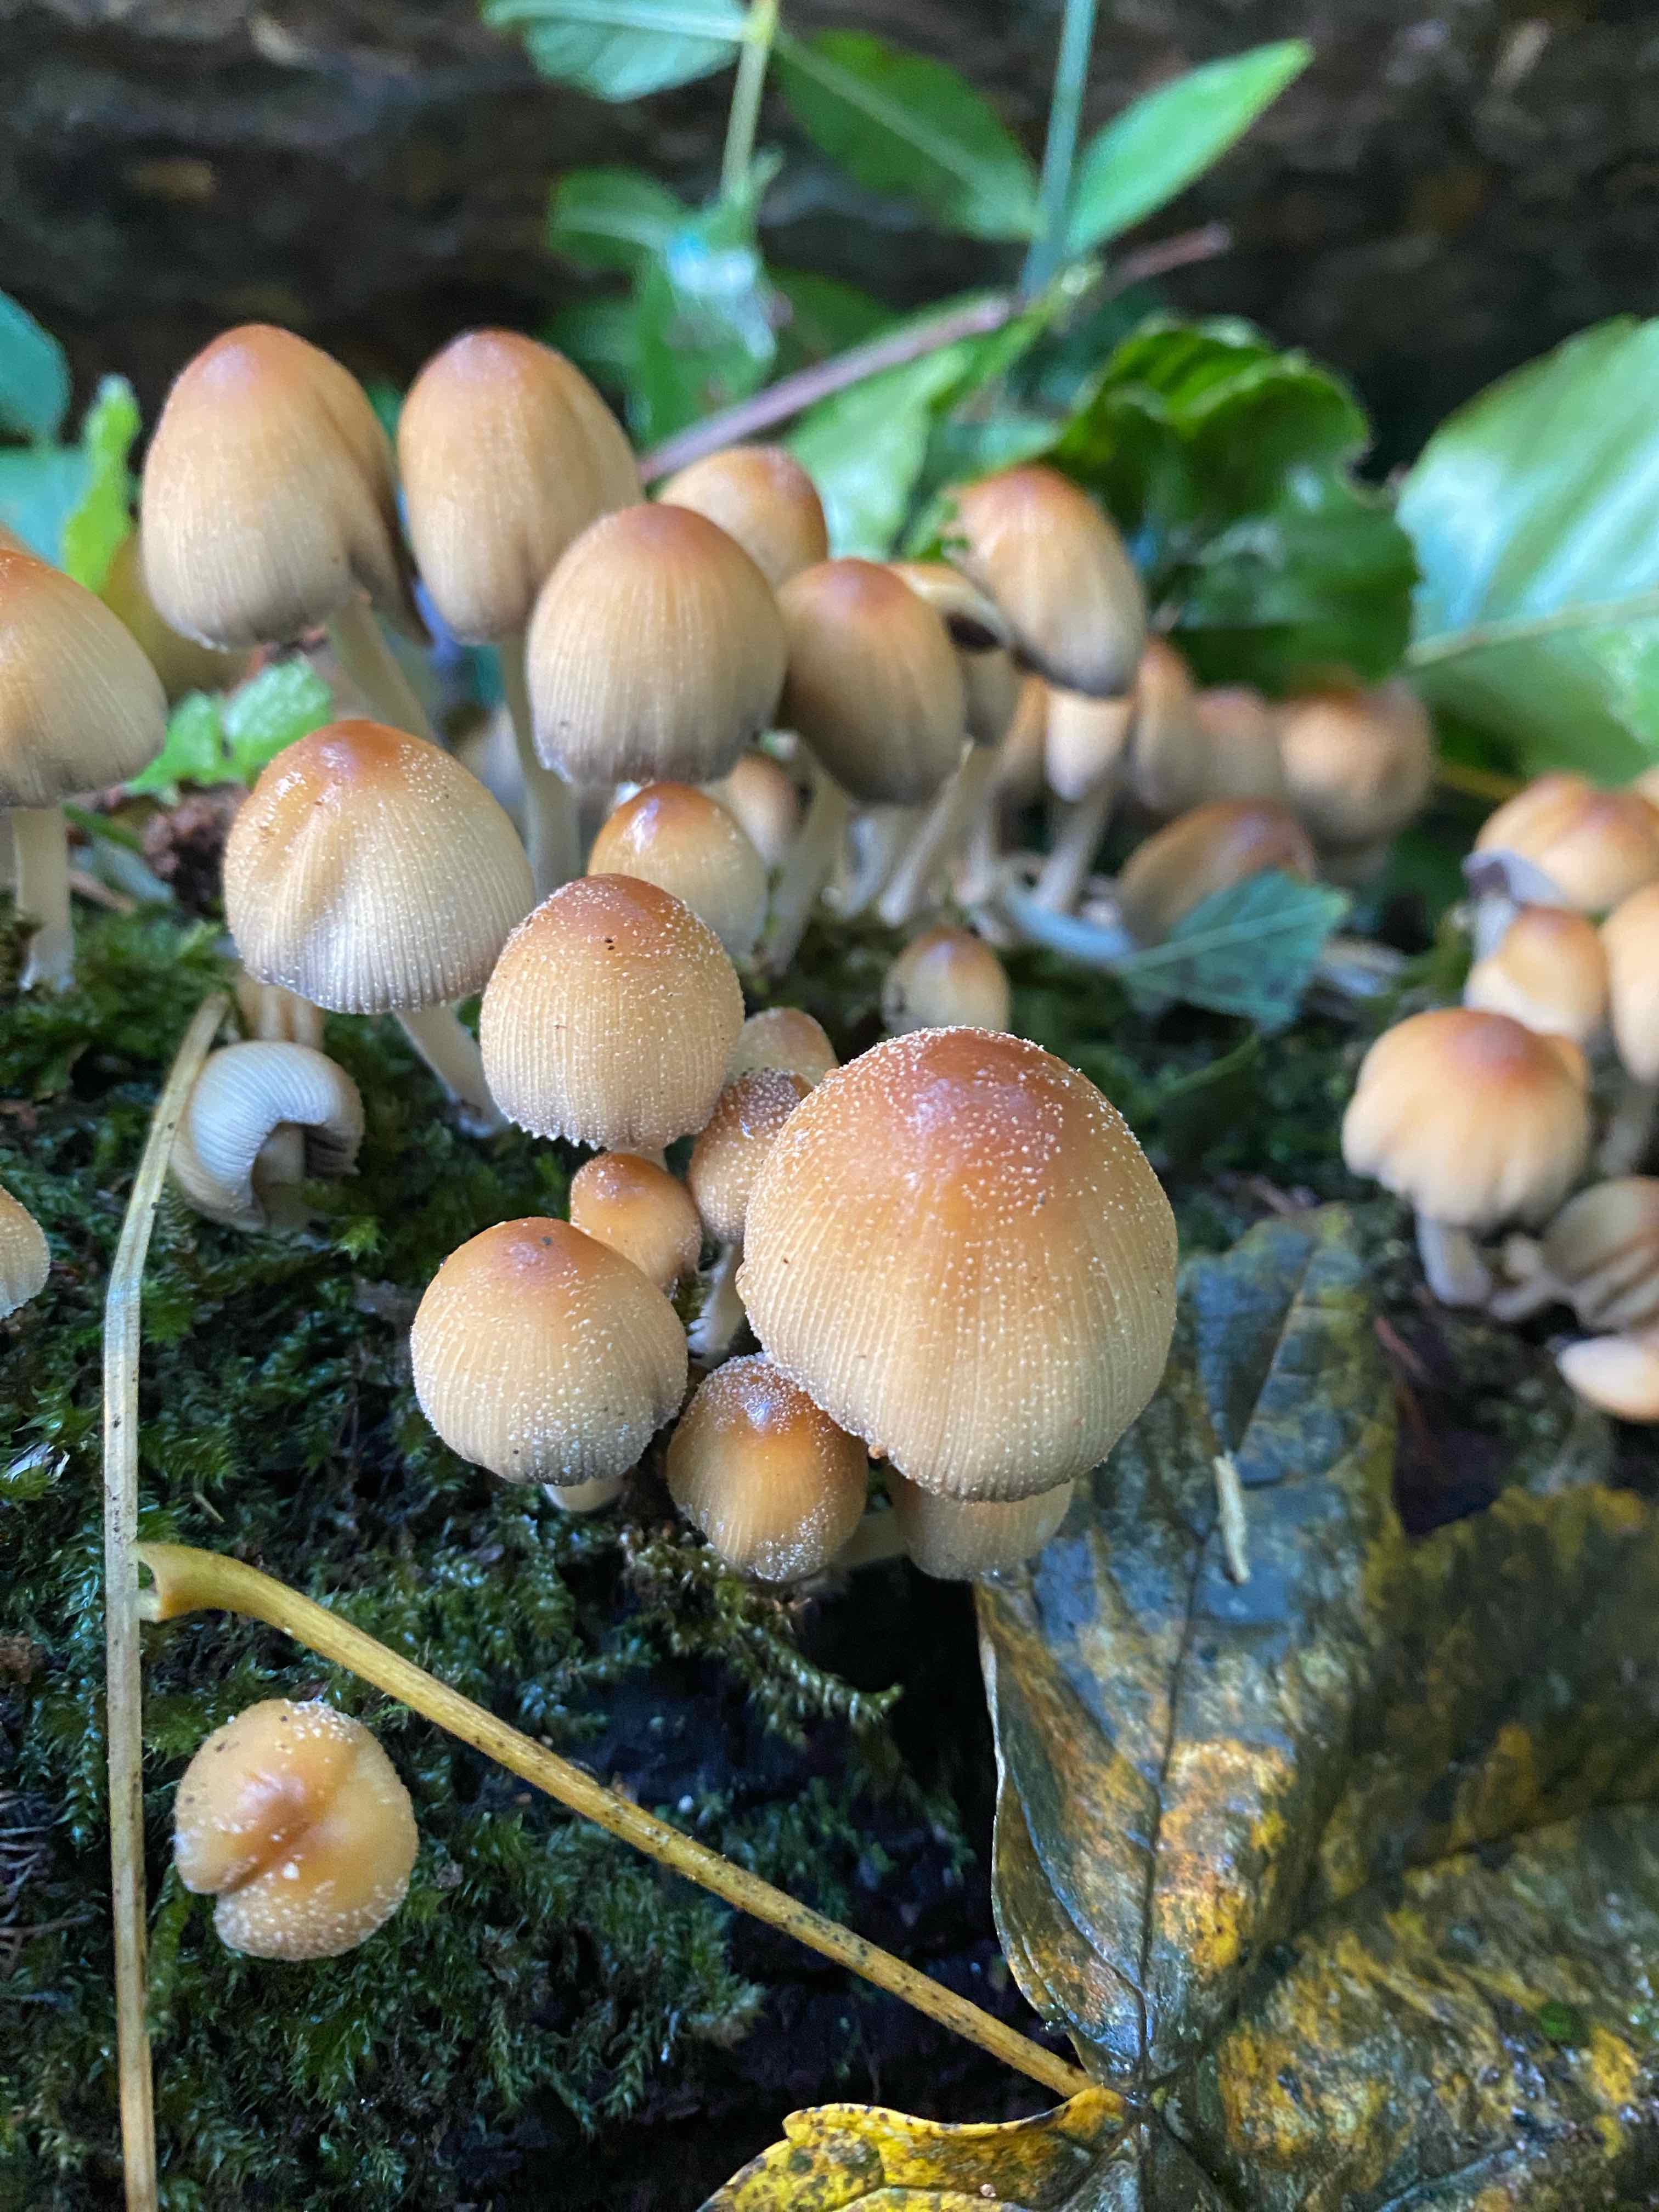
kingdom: Fungi
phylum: Basidiomycota
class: Agaricomycetes
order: Agaricales
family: Psathyrellaceae
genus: Coprinellus
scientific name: Coprinellus micaceus
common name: glimmer-blækhat
